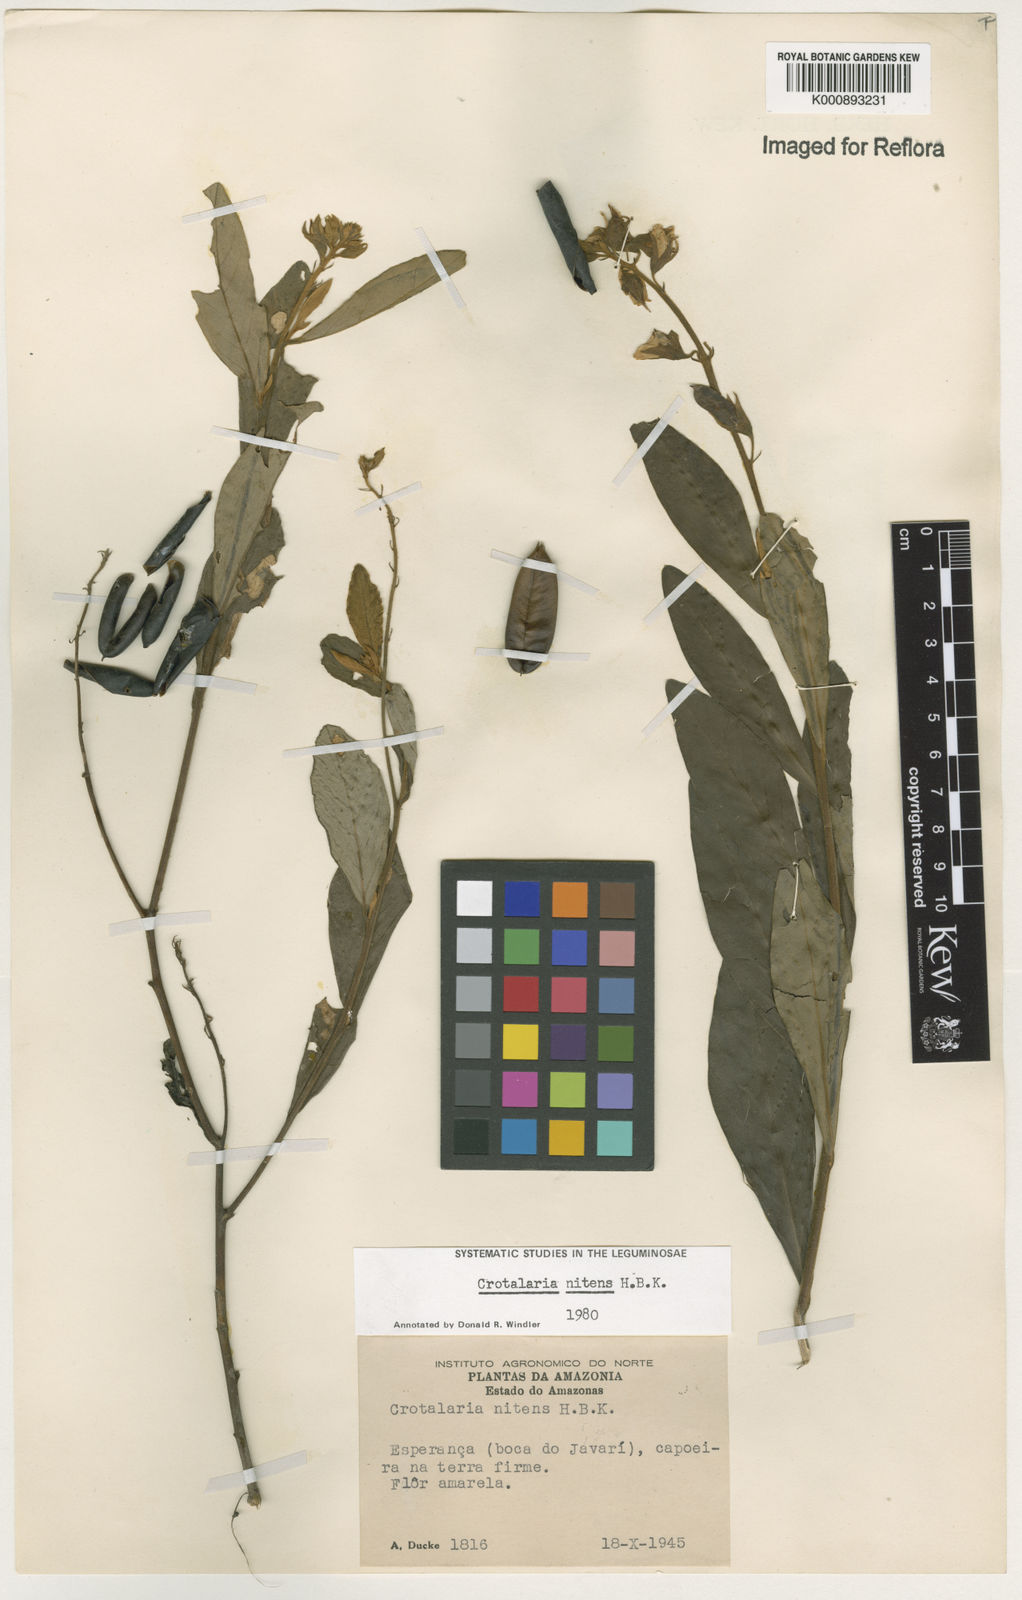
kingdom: Plantae
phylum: Tracheophyta
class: Magnoliopsida
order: Fabales
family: Fabaceae
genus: Crotalaria
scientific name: Crotalaria nitens
